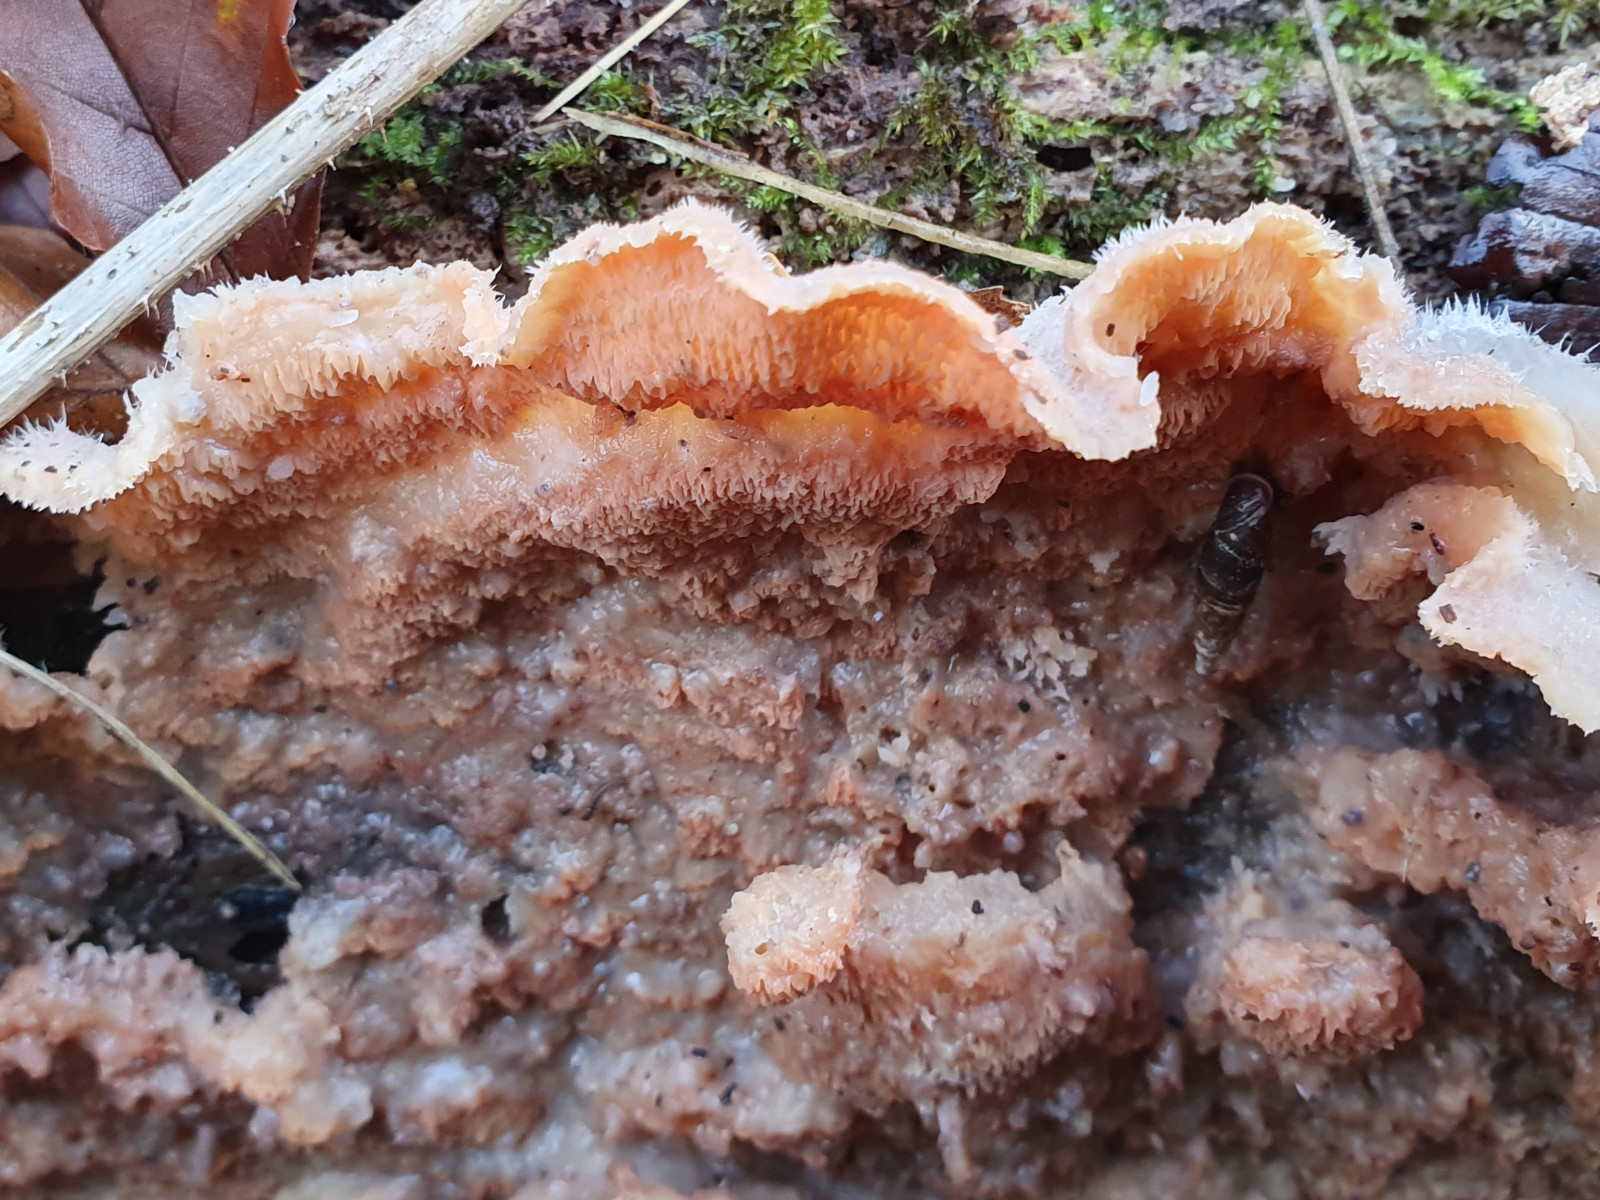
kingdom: Fungi
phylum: Basidiomycota
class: Agaricomycetes
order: Polyporales
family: Meruliaceae
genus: Phlebia
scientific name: Phlebia tremellosa
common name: bævrende åresvamp
